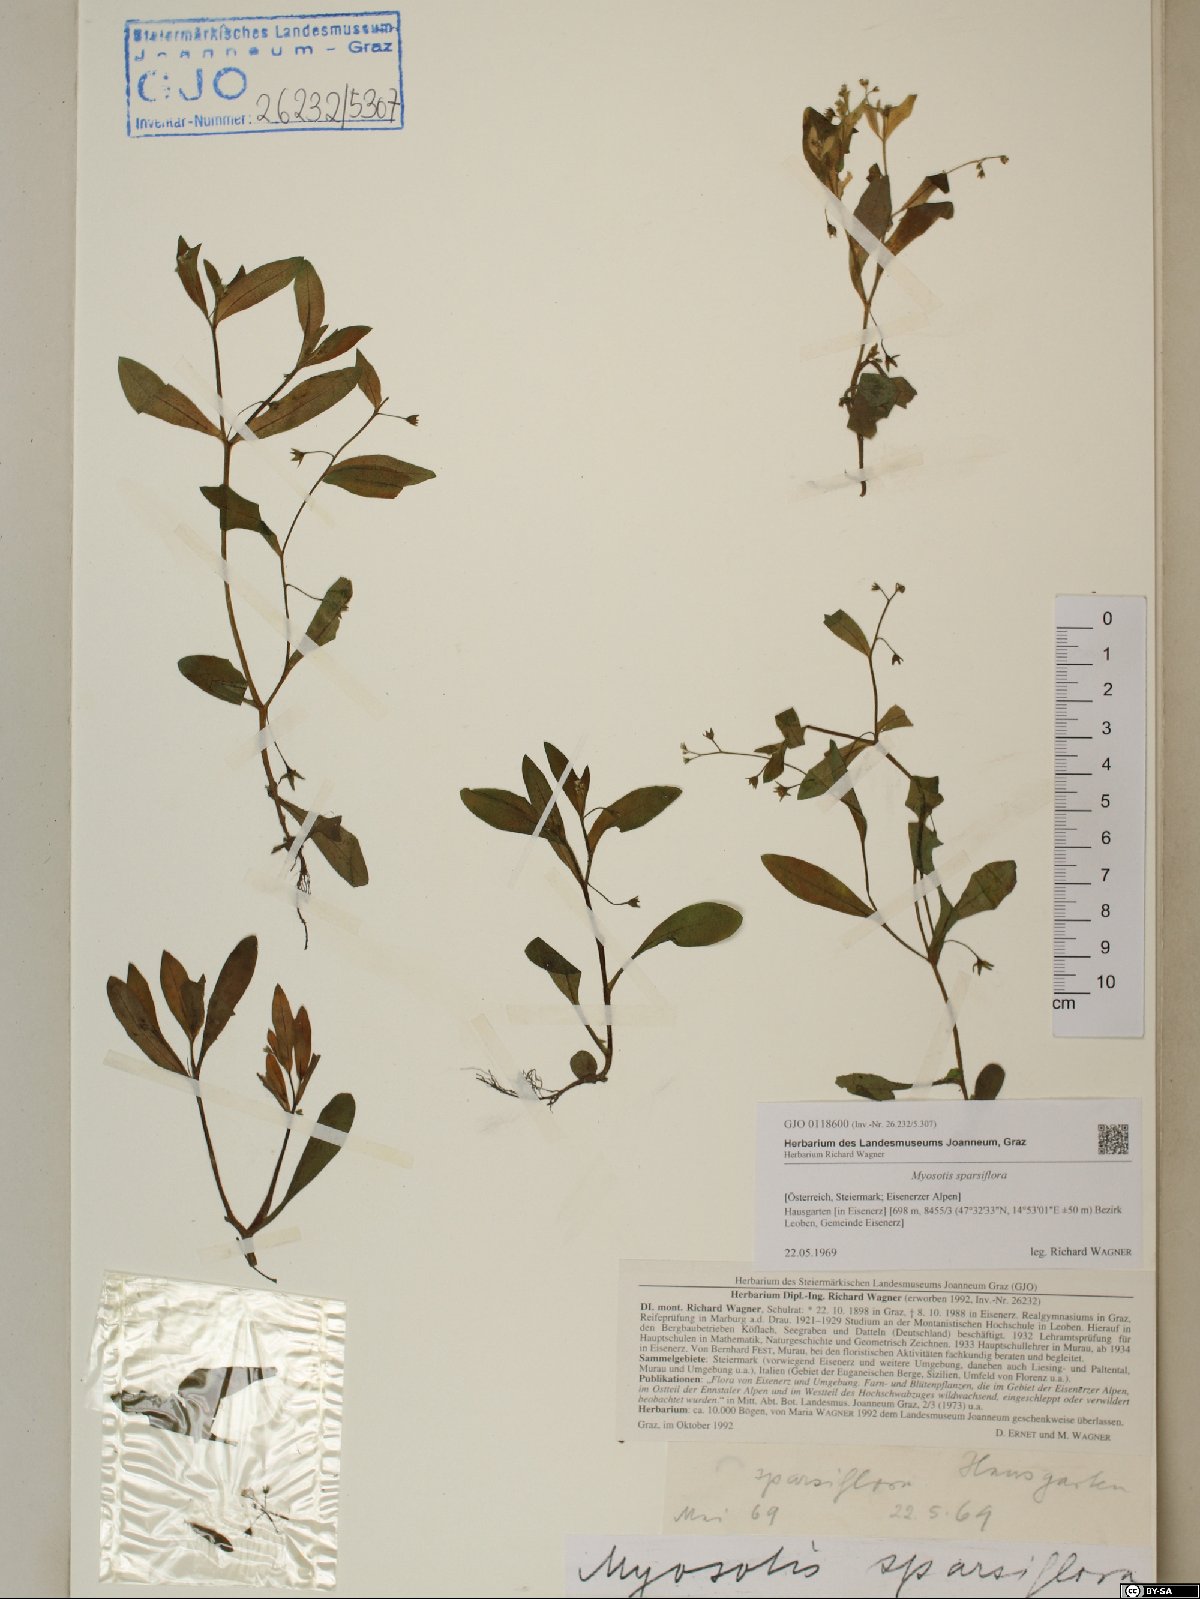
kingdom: Plantae
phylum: Tracheophyta
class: Magnoliopsida
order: Boraginales
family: Boraginaceae
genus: Myosotis
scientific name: Myosotis sparsiflora
